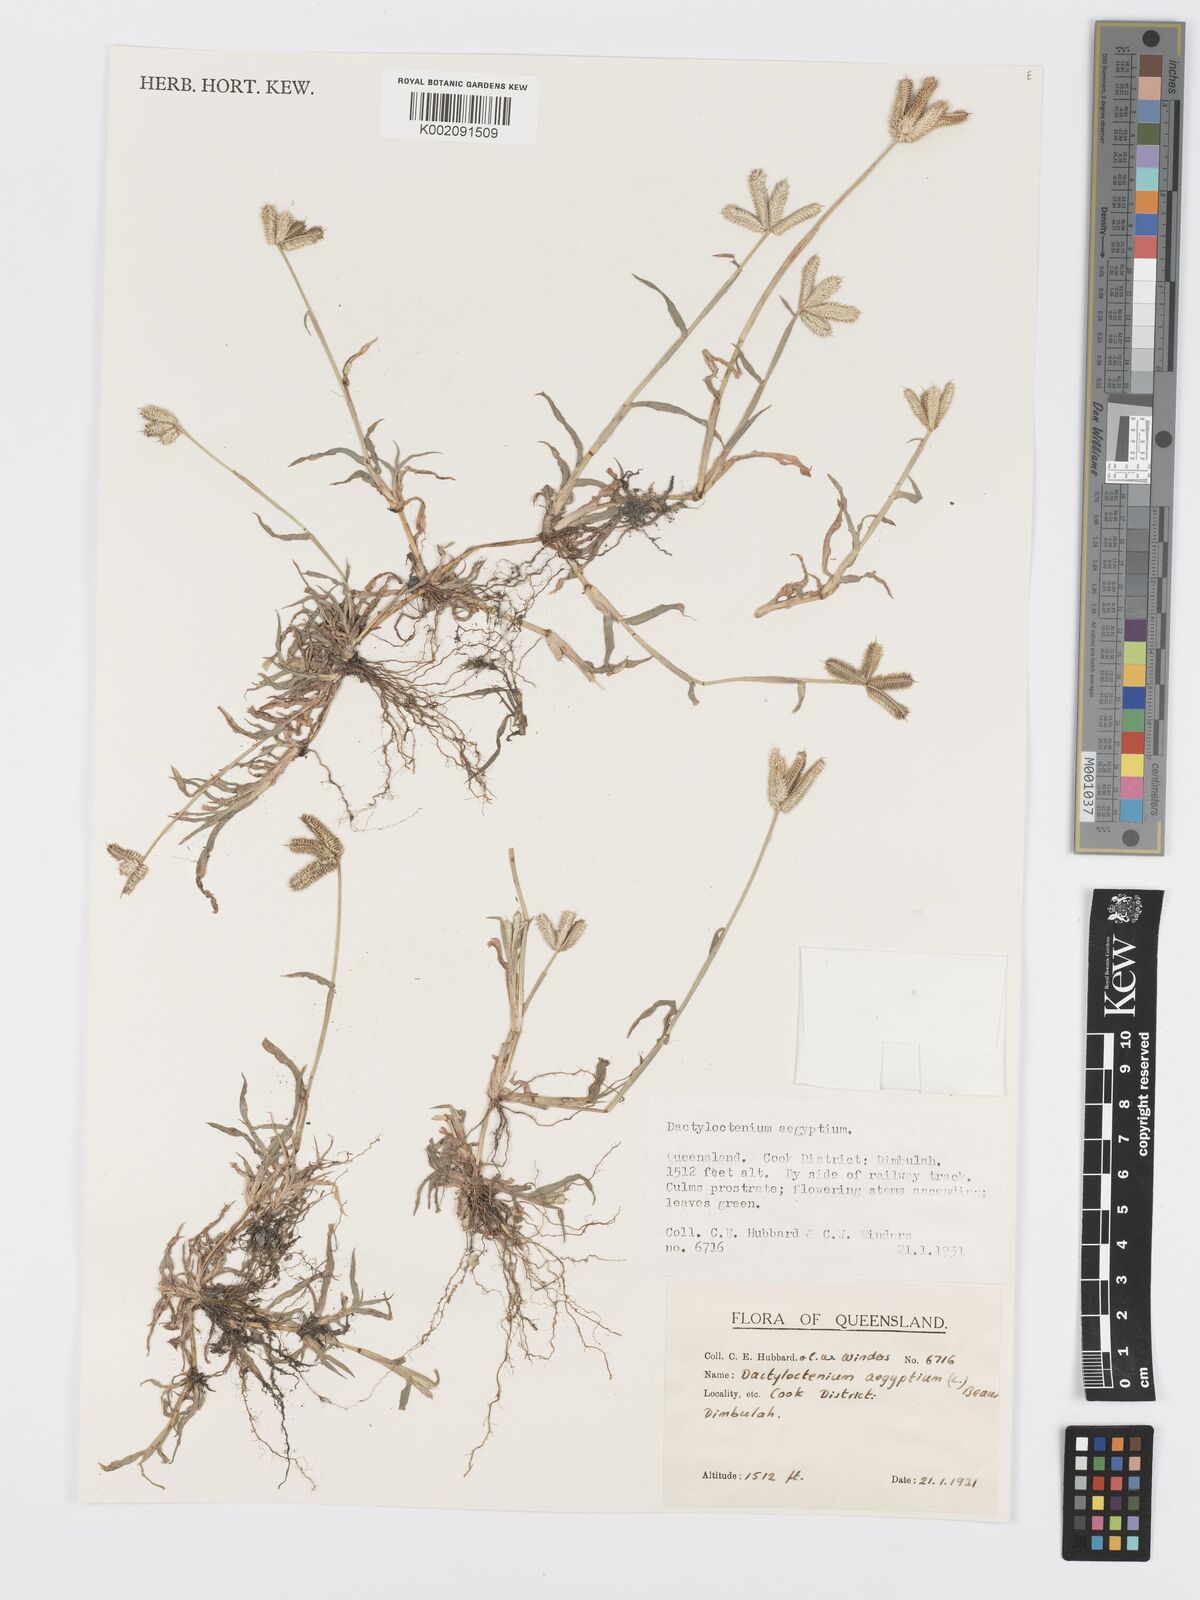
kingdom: Plantae
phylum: Tracheophyta
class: Liliopsida
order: Poales
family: Poaceae
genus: Dactyloctenium
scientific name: Dactyloctenium aegyptium
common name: Egyptian grass
